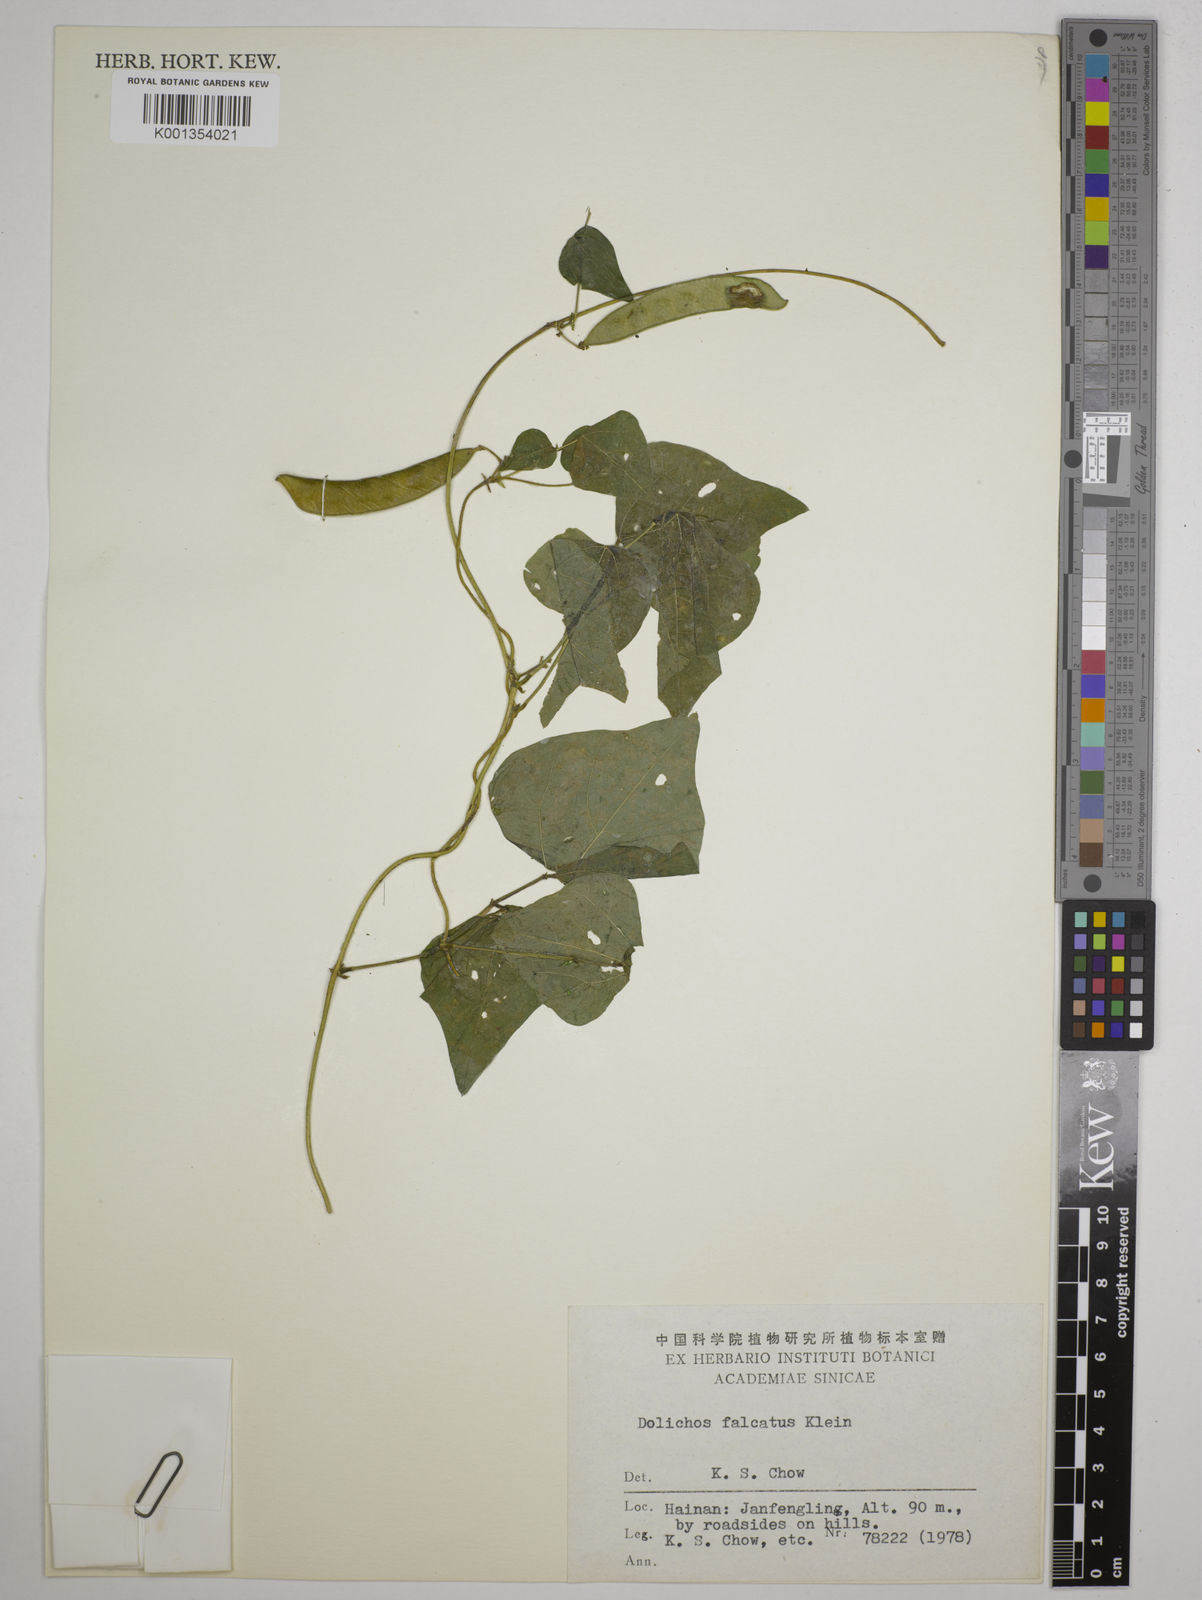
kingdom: Plantae
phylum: Tracheophyta
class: Magnoliopsida
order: Fabales
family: Fabaceae
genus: Dolichos
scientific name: Dolichos trilobus
